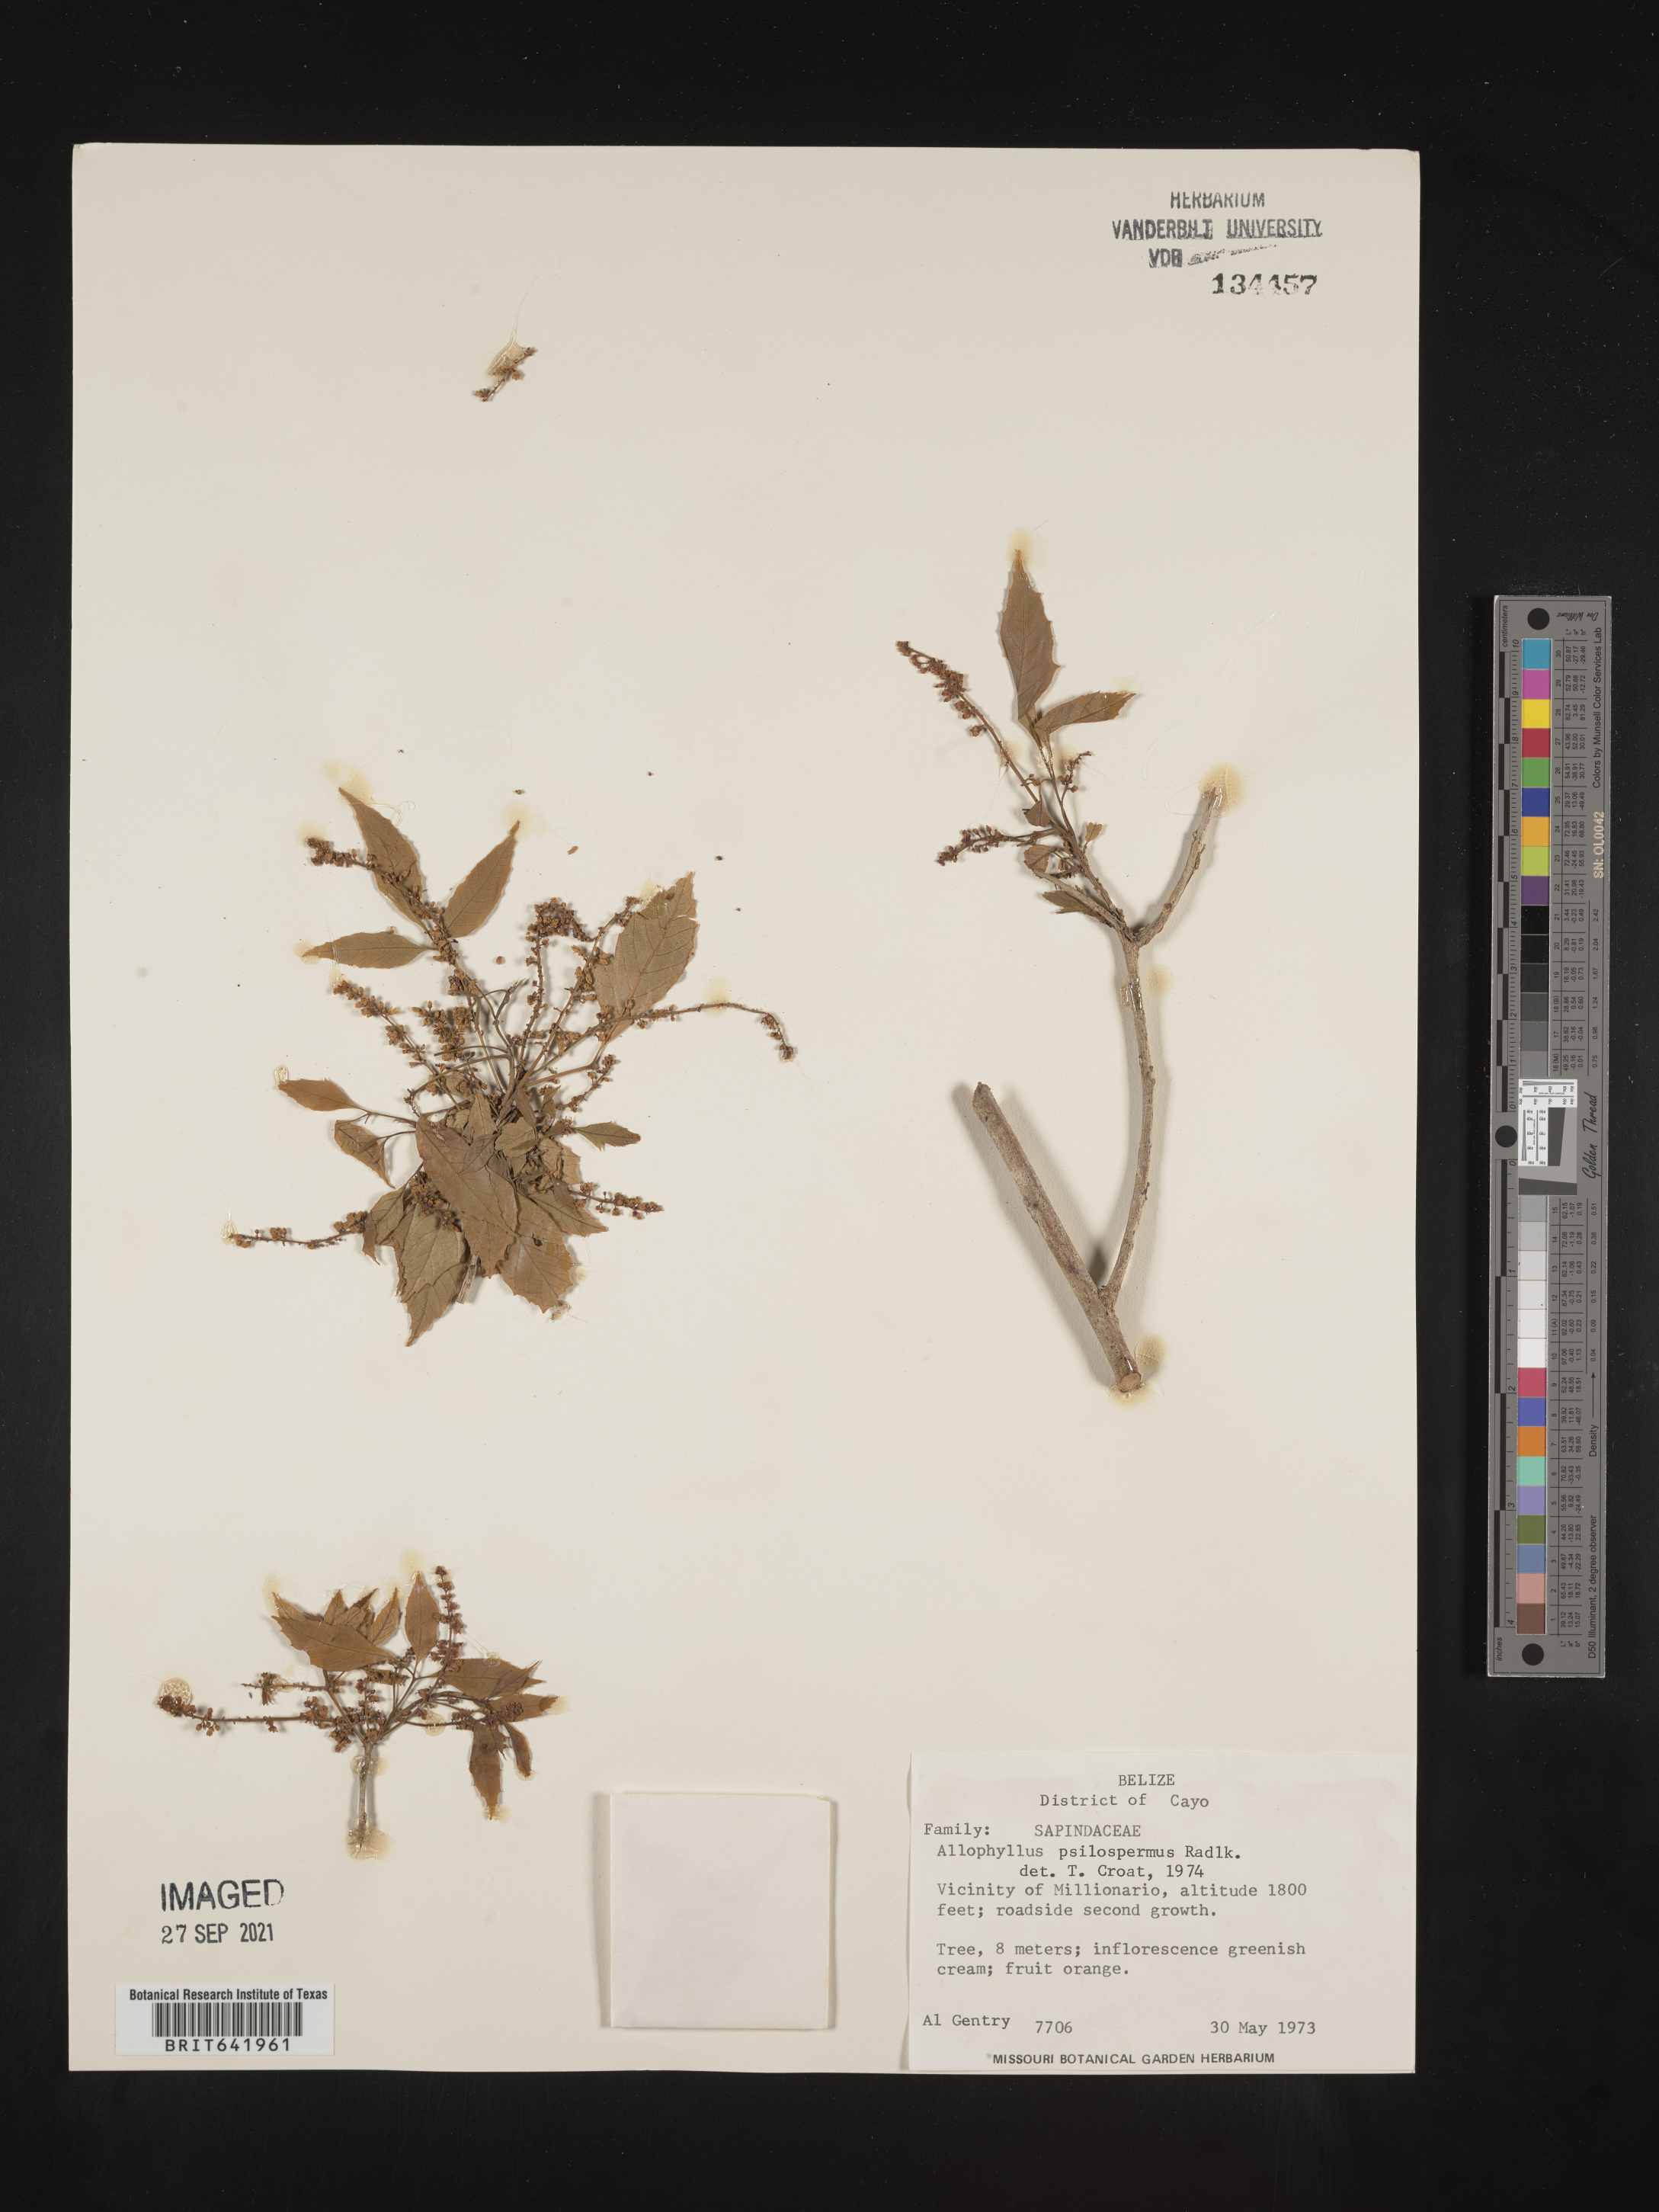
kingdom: Plantae
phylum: Tracheophyta
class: Magnoliopsida
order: Sapindales
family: Sapindaceae
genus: Allophylus
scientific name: Allophylus
